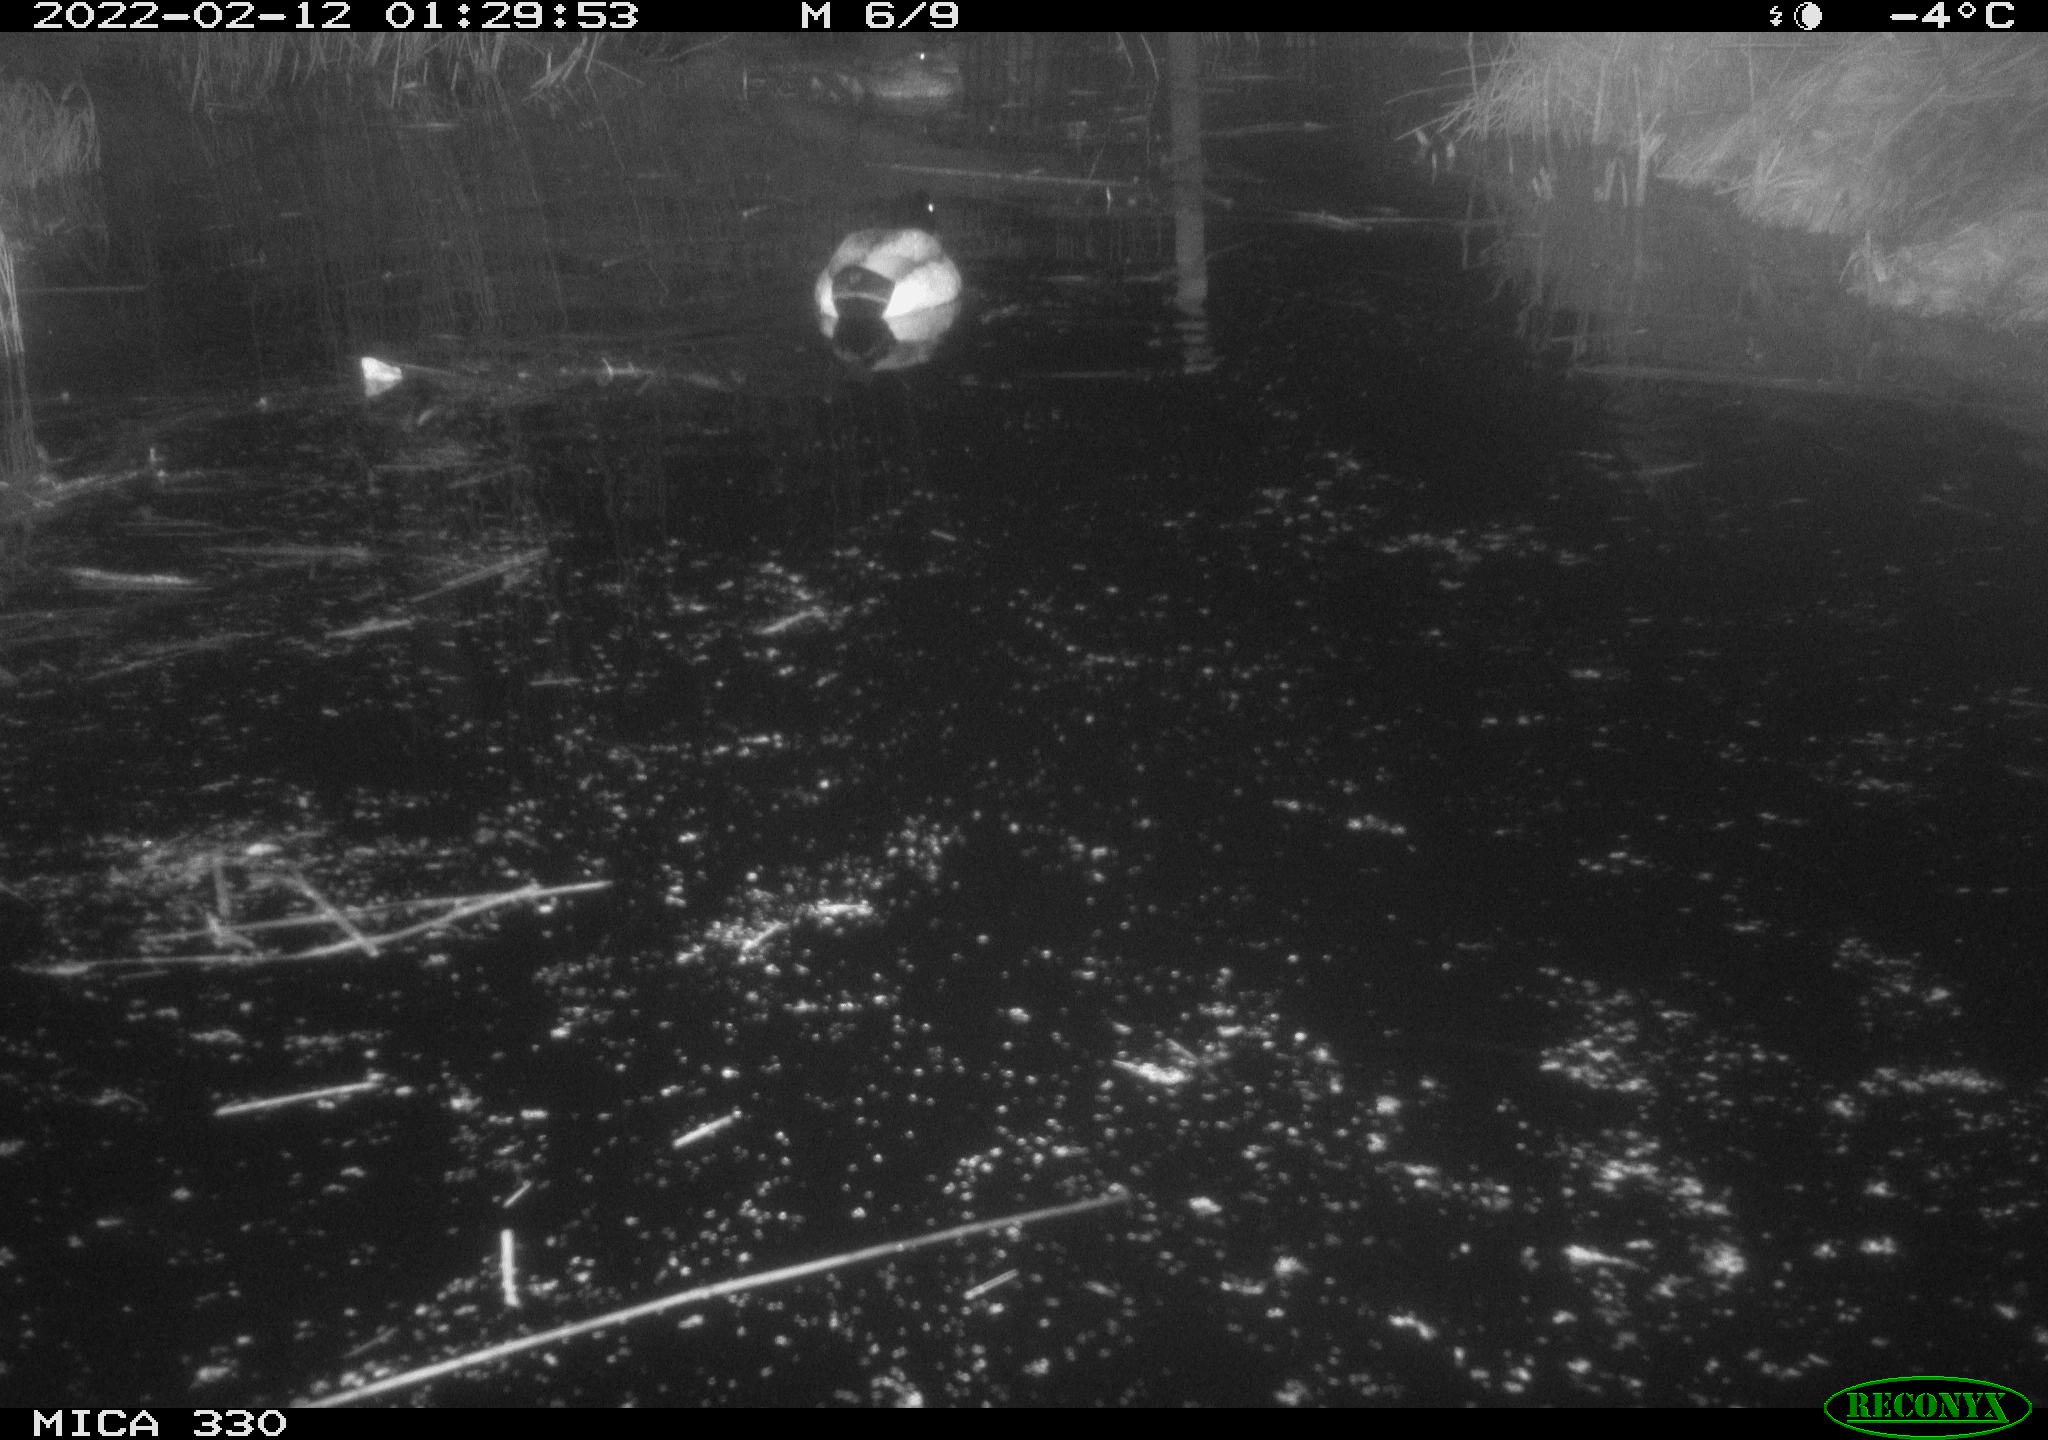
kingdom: Animalia
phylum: Chordata
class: Aves
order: Anseriformes
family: Anatidae
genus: Anas
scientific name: Anas platyrhynchos
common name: Mallard
